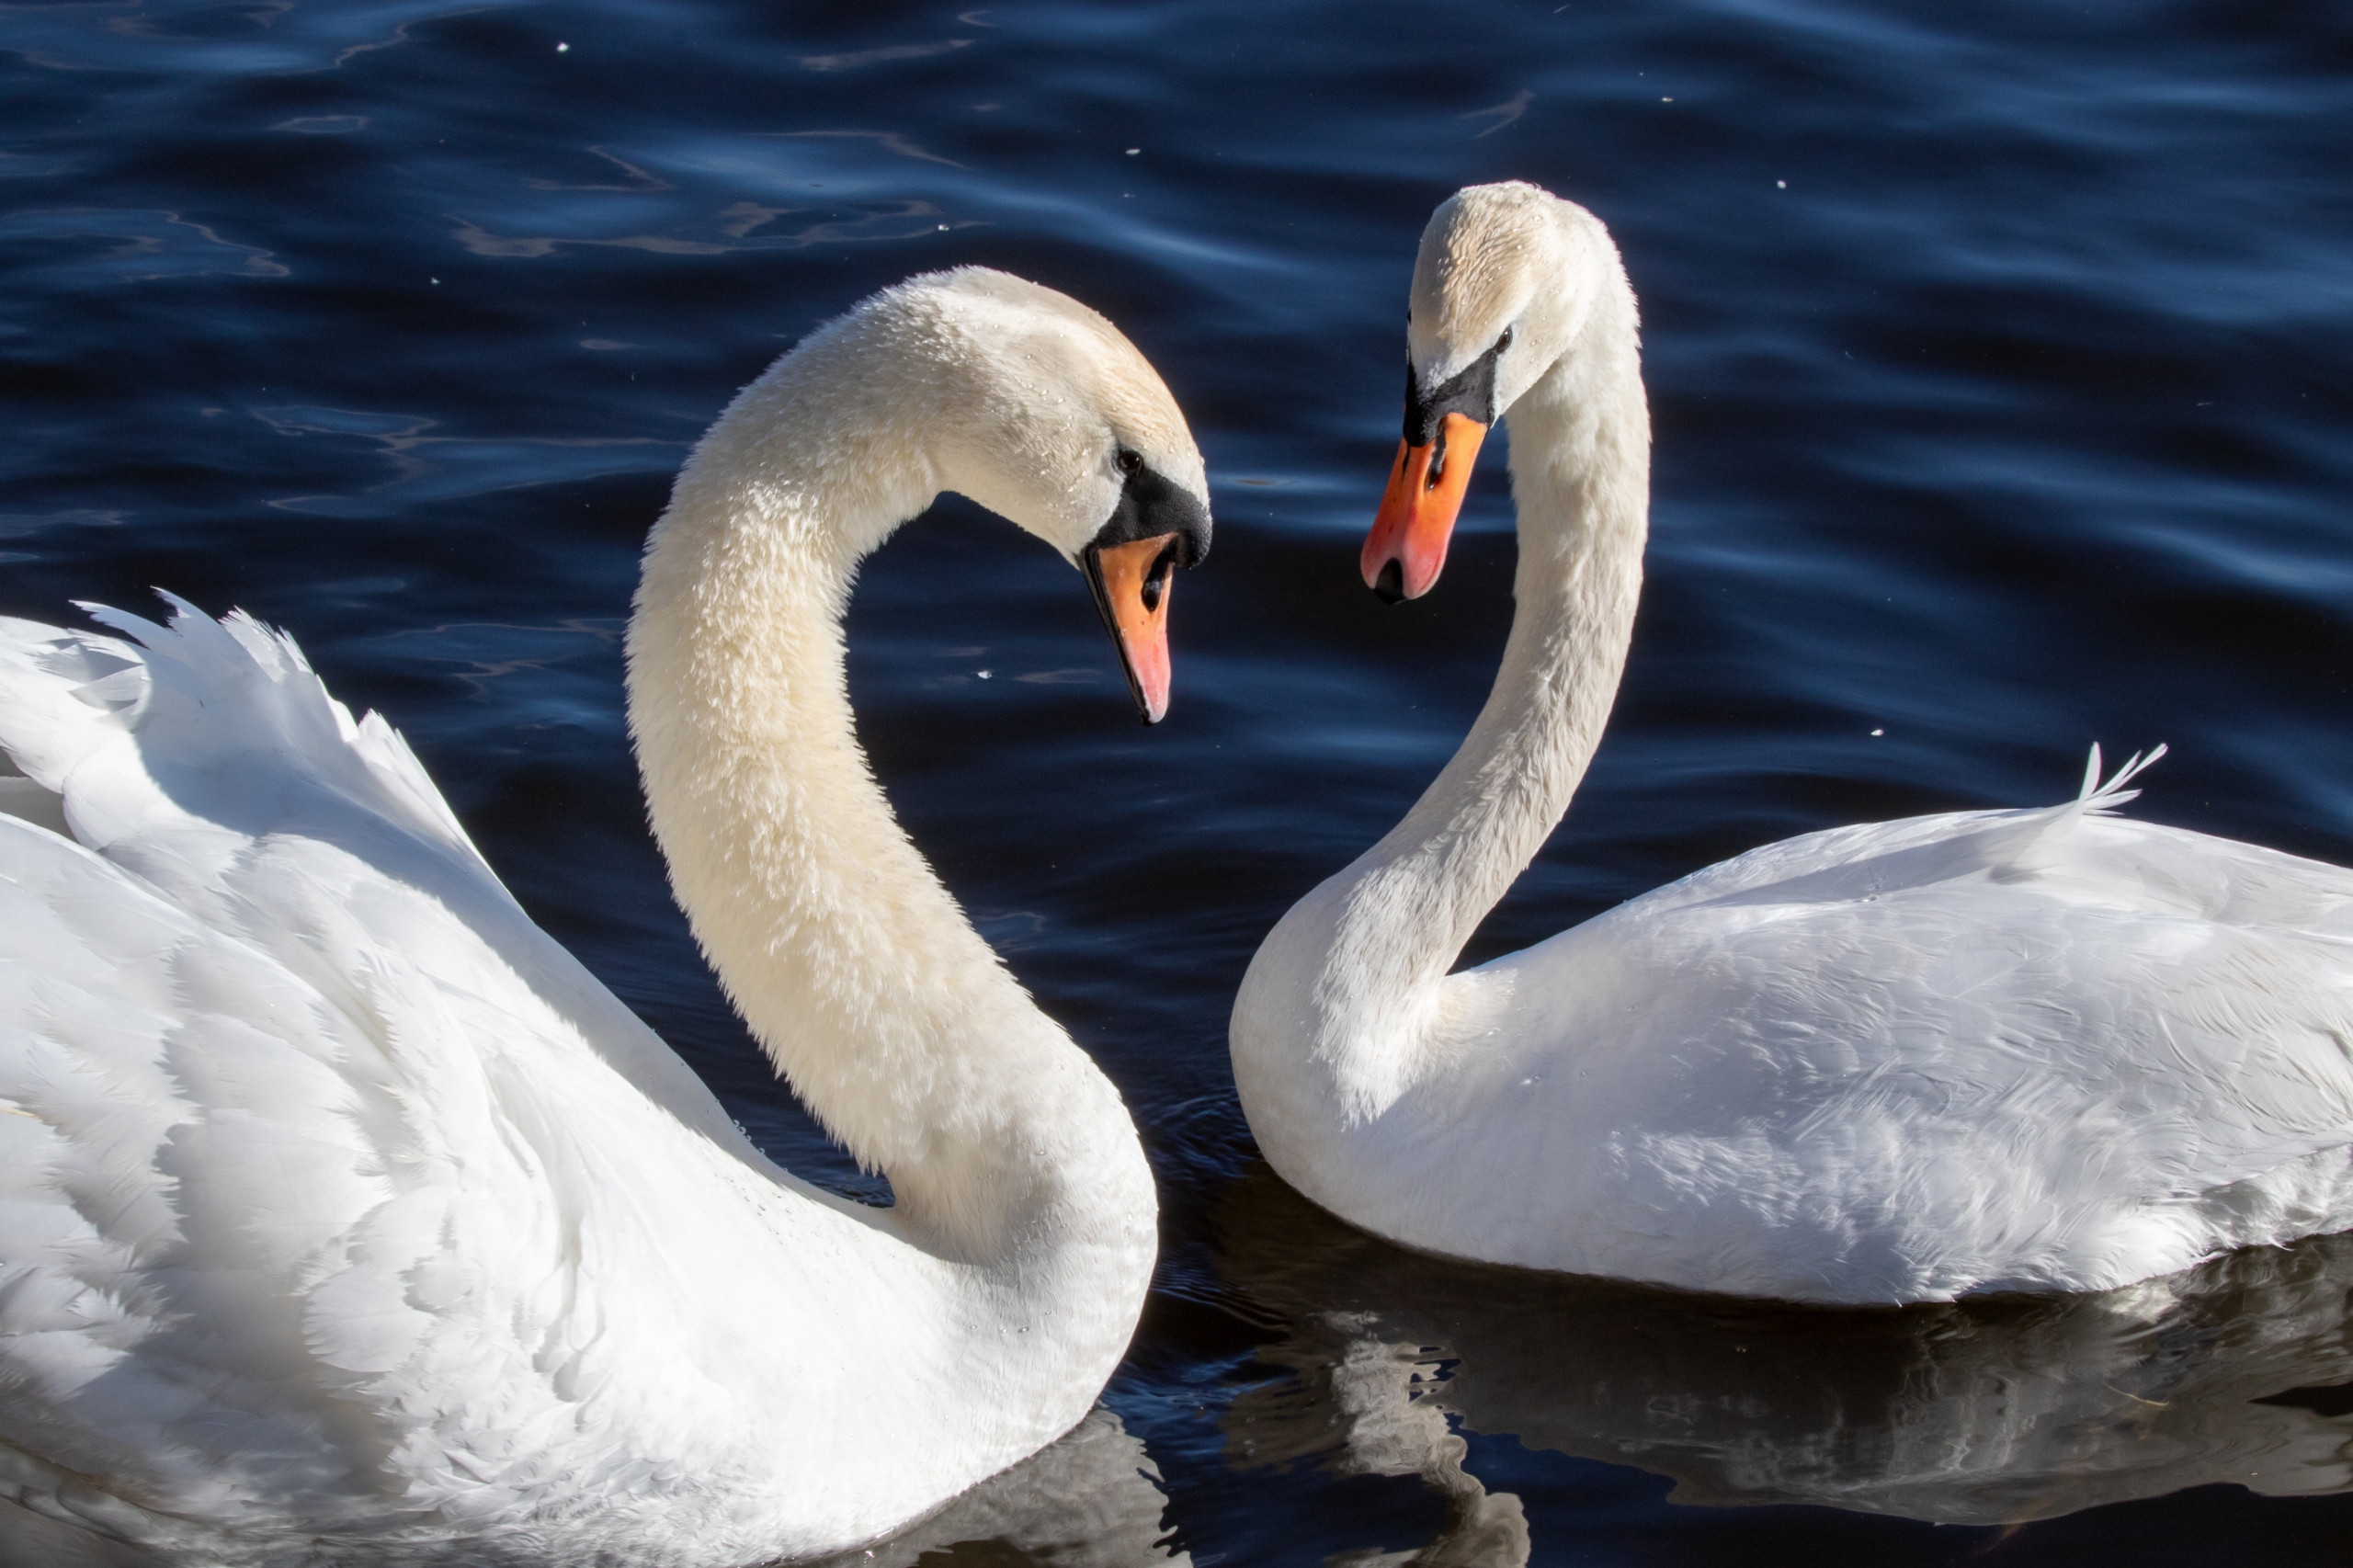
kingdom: Animalia
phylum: Chordata
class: Aves
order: Anseriformes
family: Anatidae
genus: Cygnus
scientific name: Cygnus olor
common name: Knopsvane
